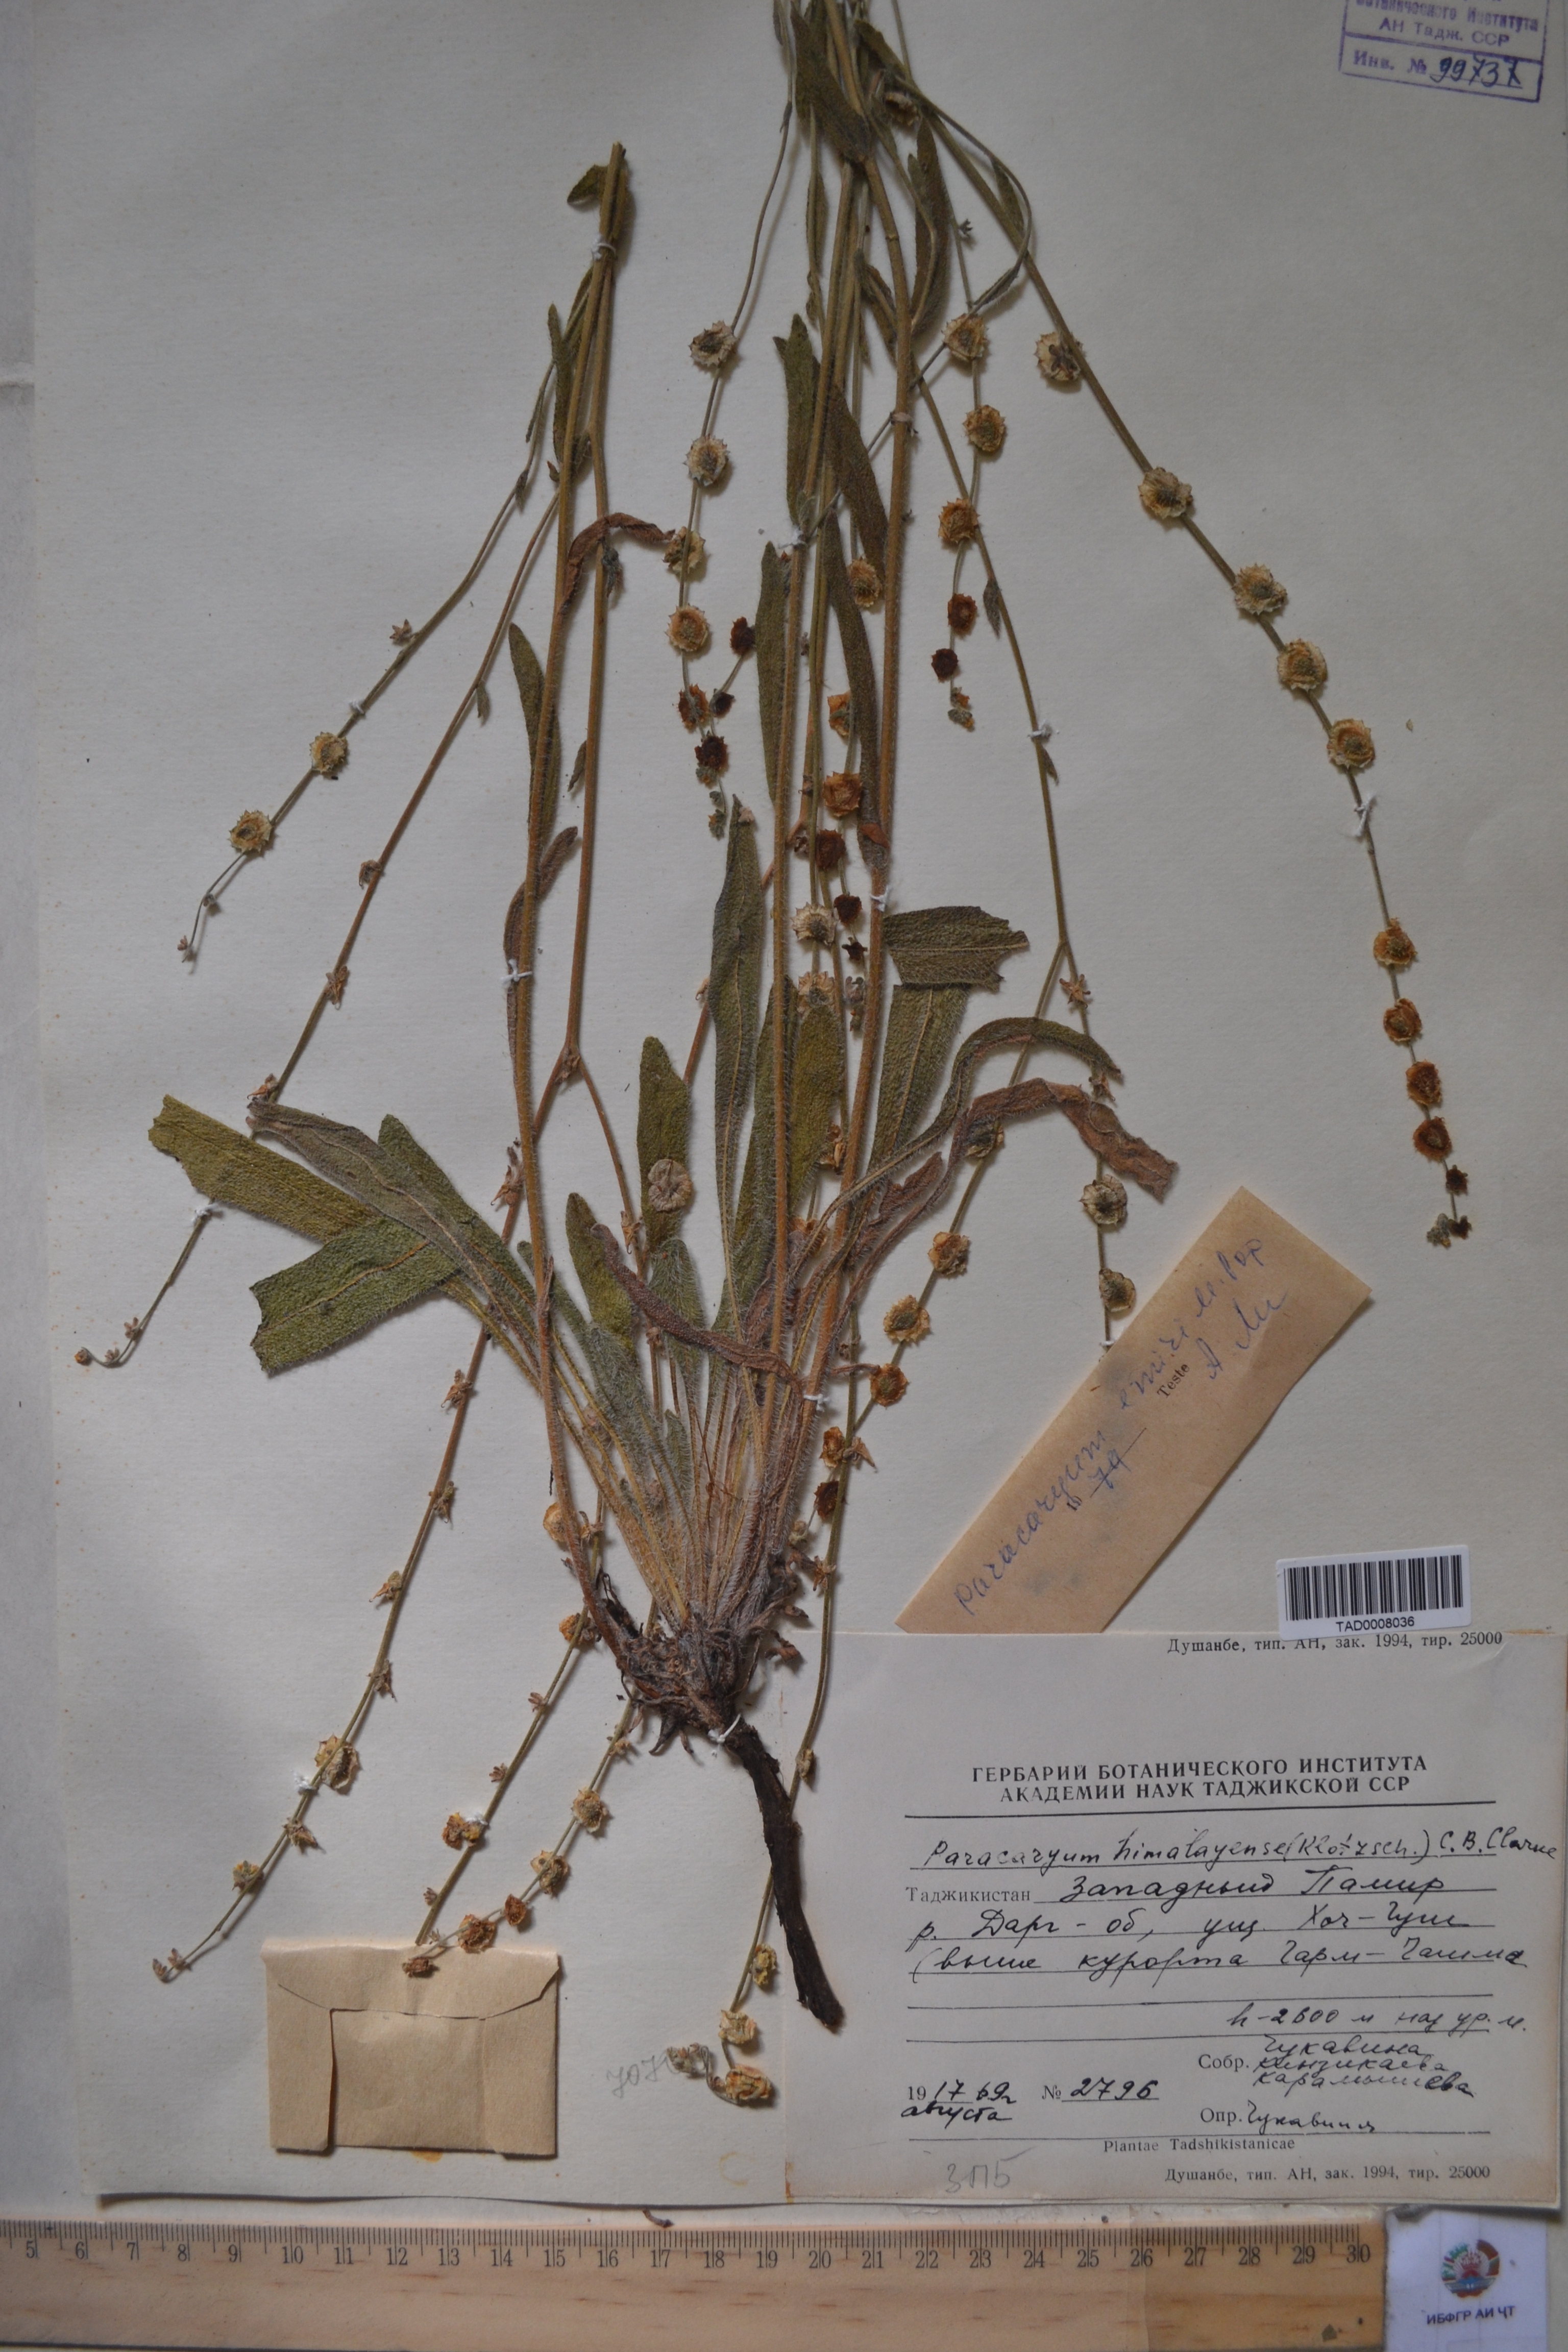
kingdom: Plantae
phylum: Tracheophyta
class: Magnoliopsida
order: Boraginales
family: Boraginaceae
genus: Paracaryum
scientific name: Paracaryum himalayense
